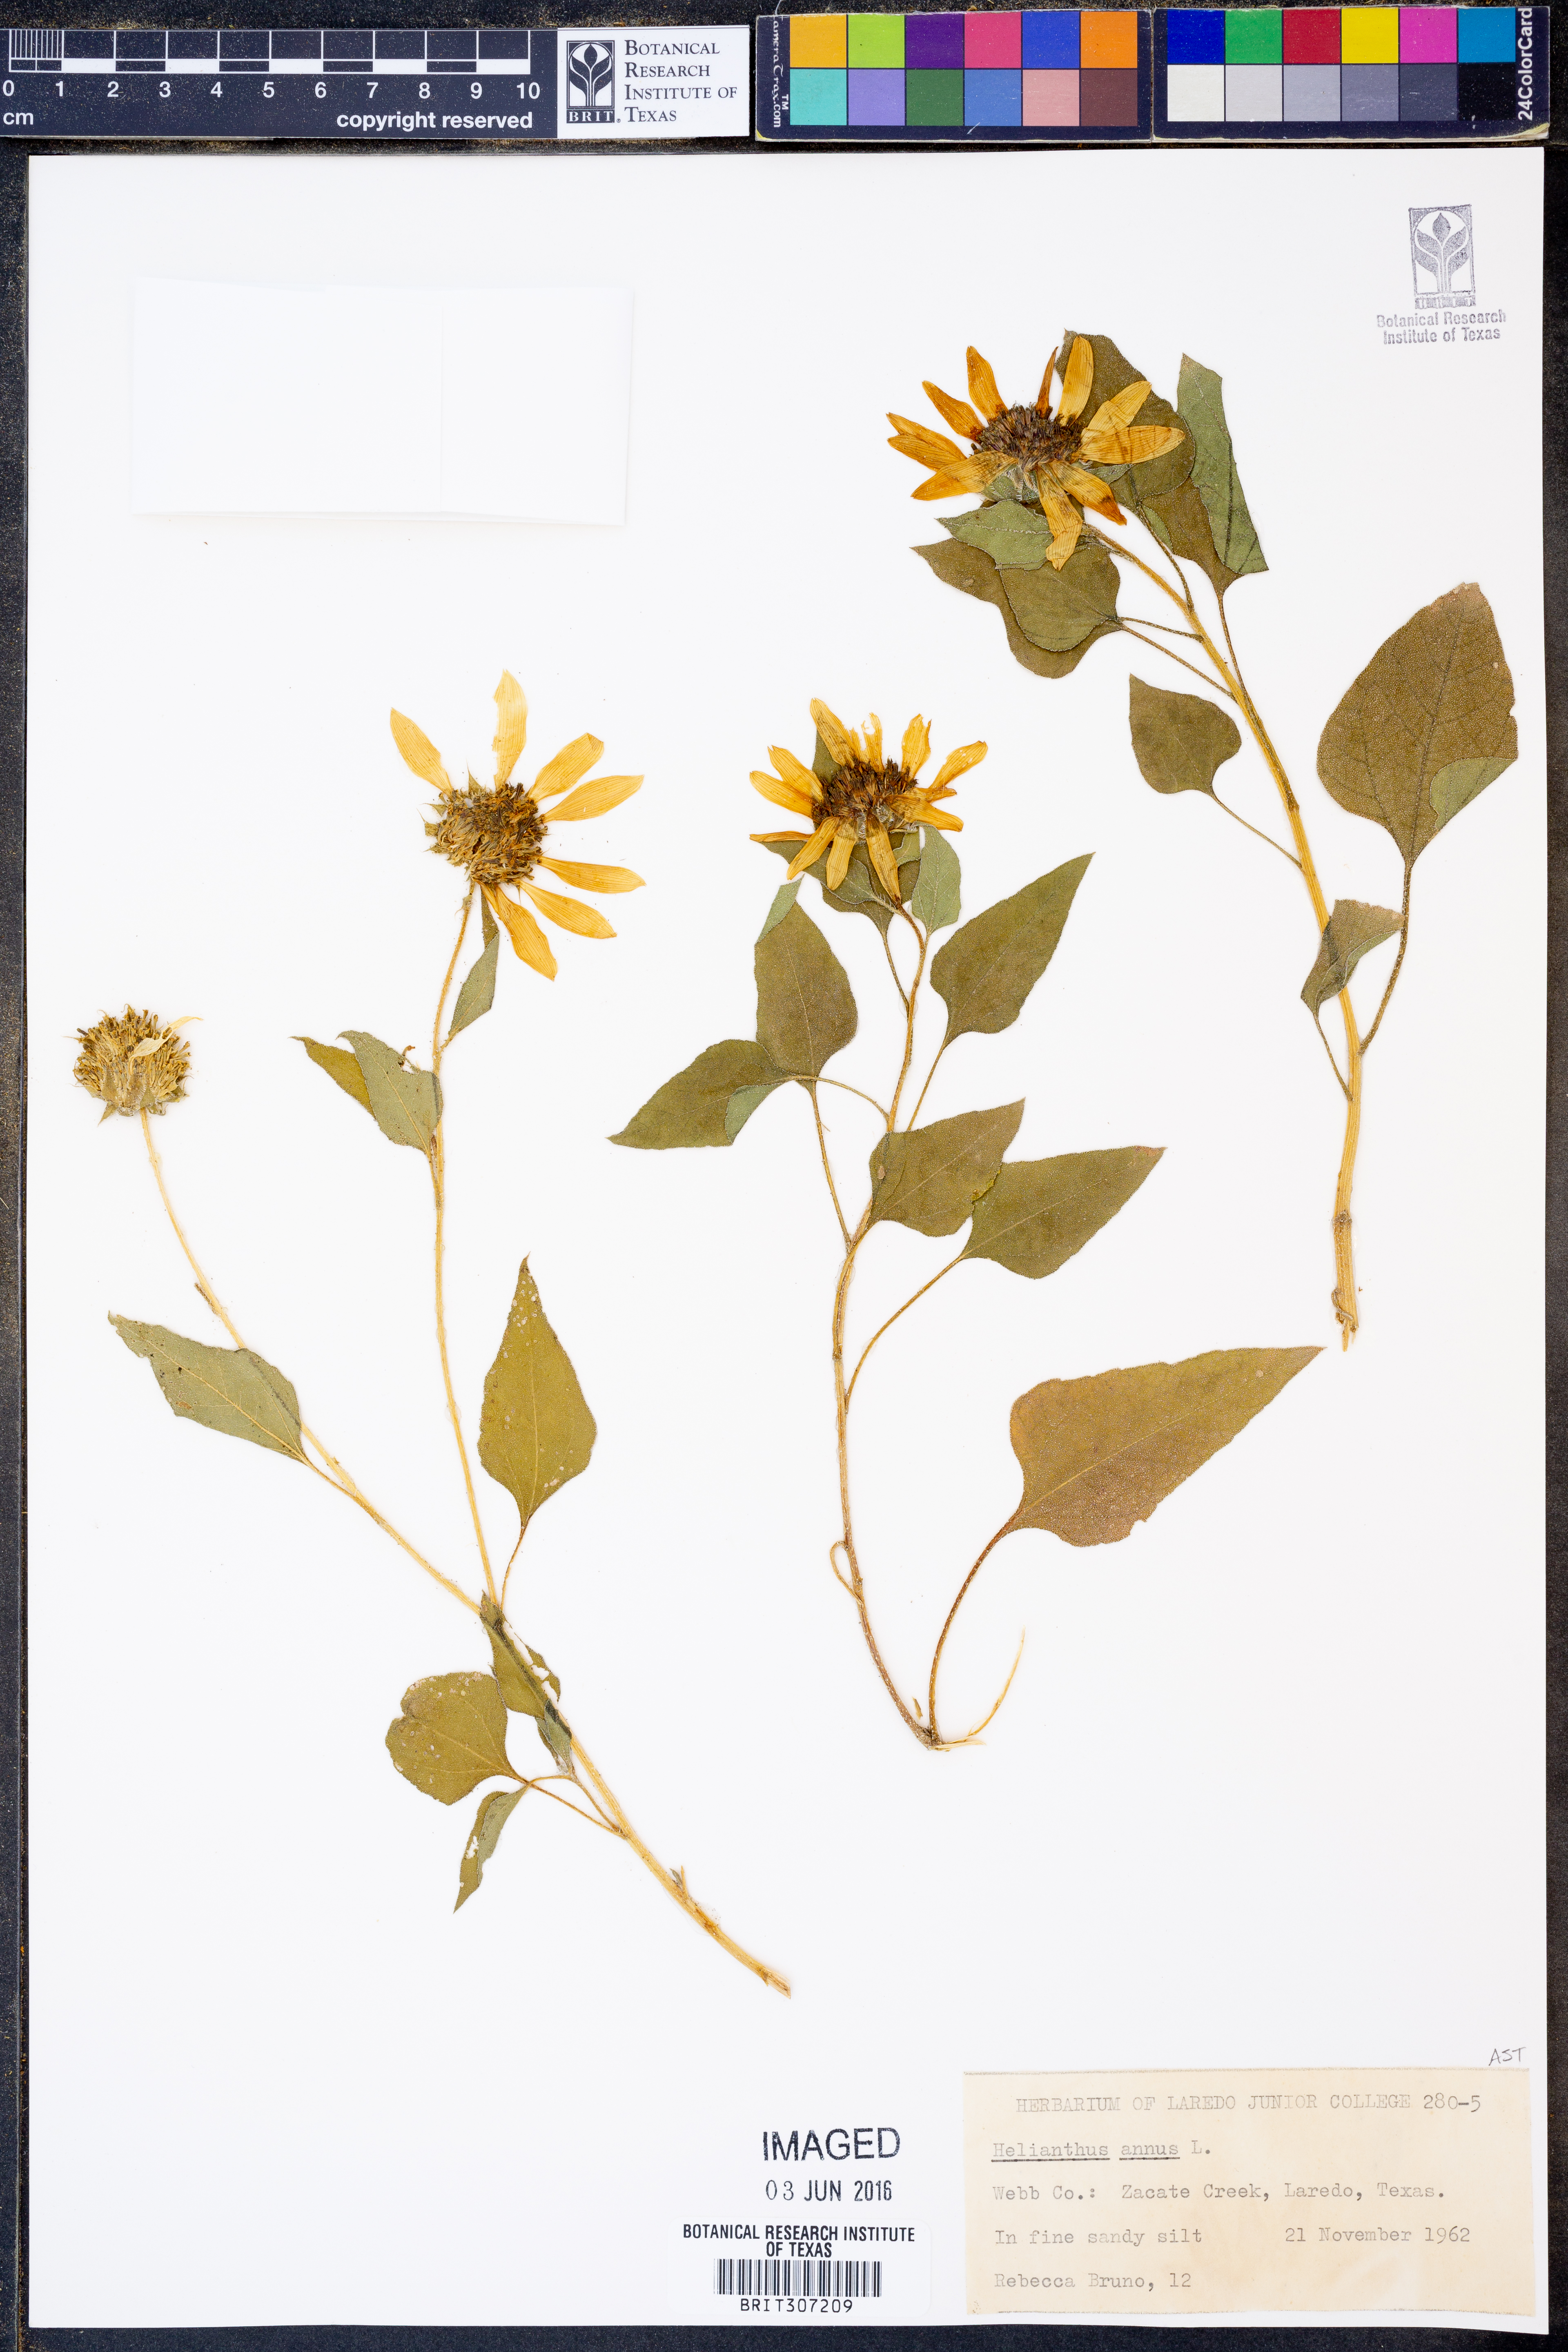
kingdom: Plantae
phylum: Tracheophyta
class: Magnoliopsida
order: Asterales
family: Asteraceae
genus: Helianthus
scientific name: Helianthus annuus
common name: Sunflower
